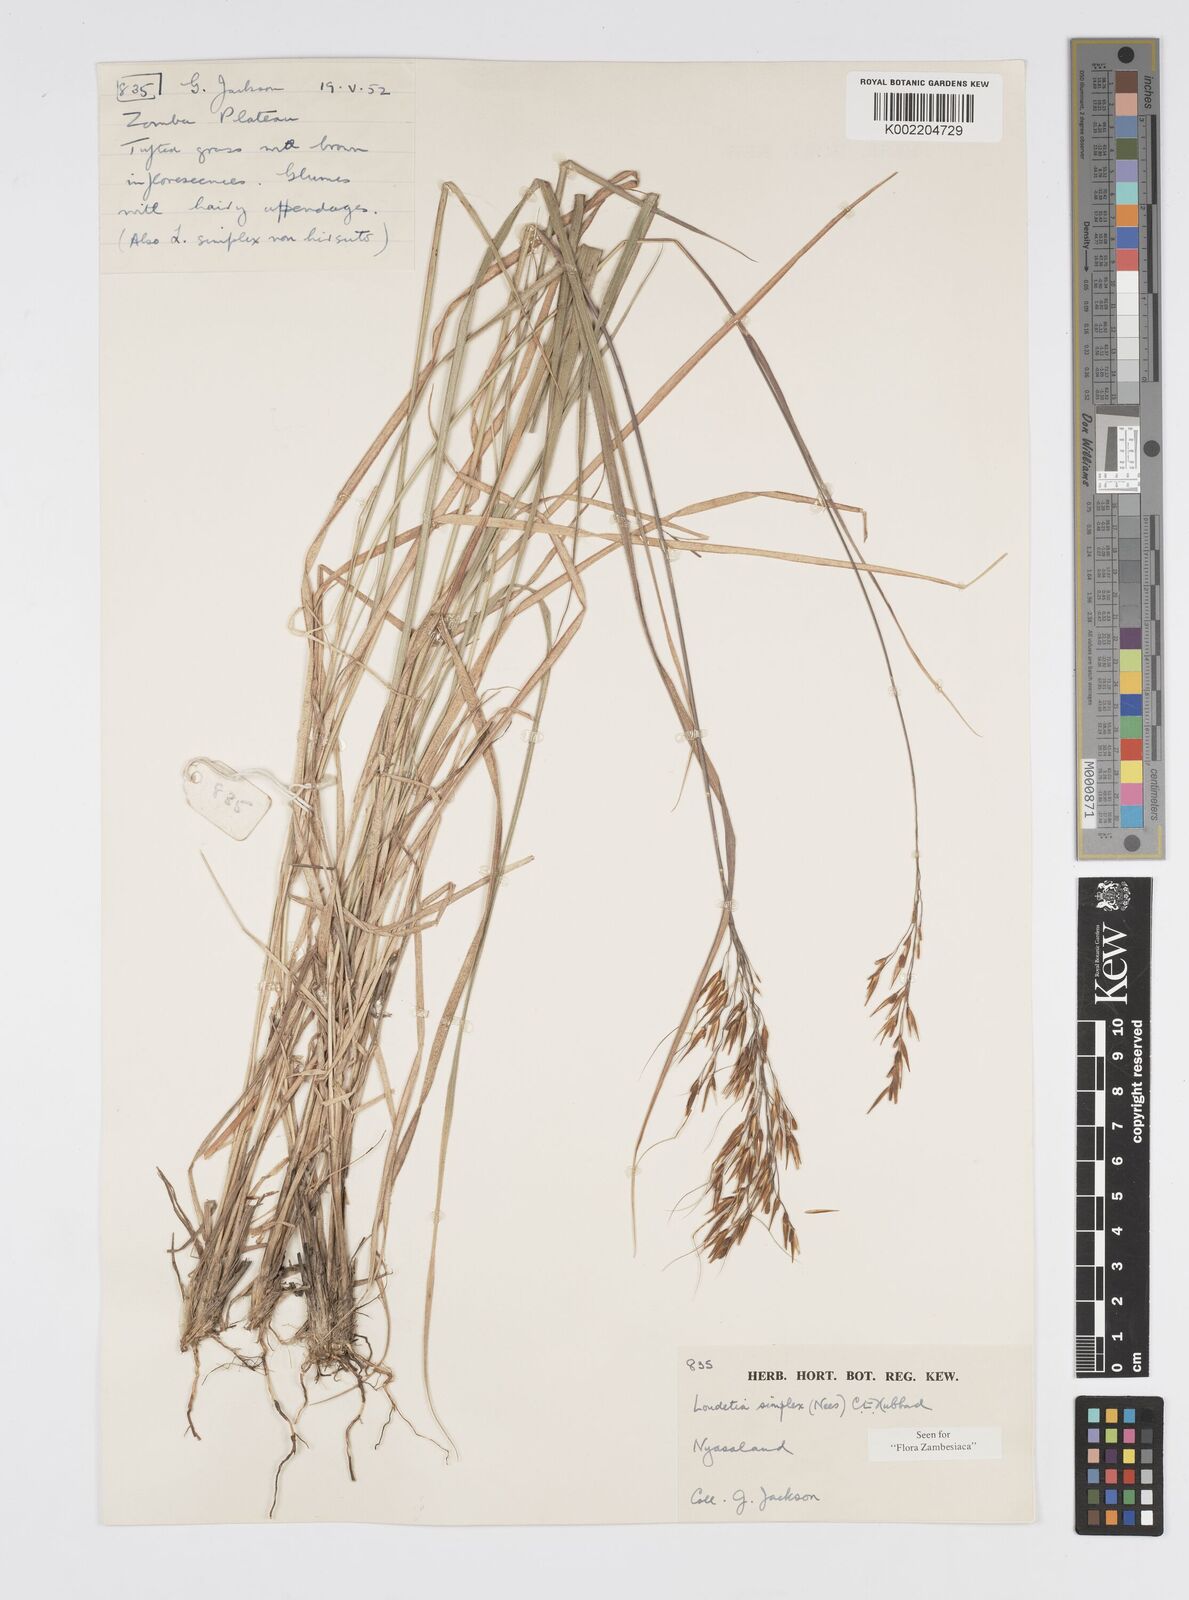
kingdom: Plantae
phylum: Tracheophyta
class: Liliopsida
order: Poales
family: Poaceae
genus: Loudetia
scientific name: Loudetia simplex
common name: Common russet grass
